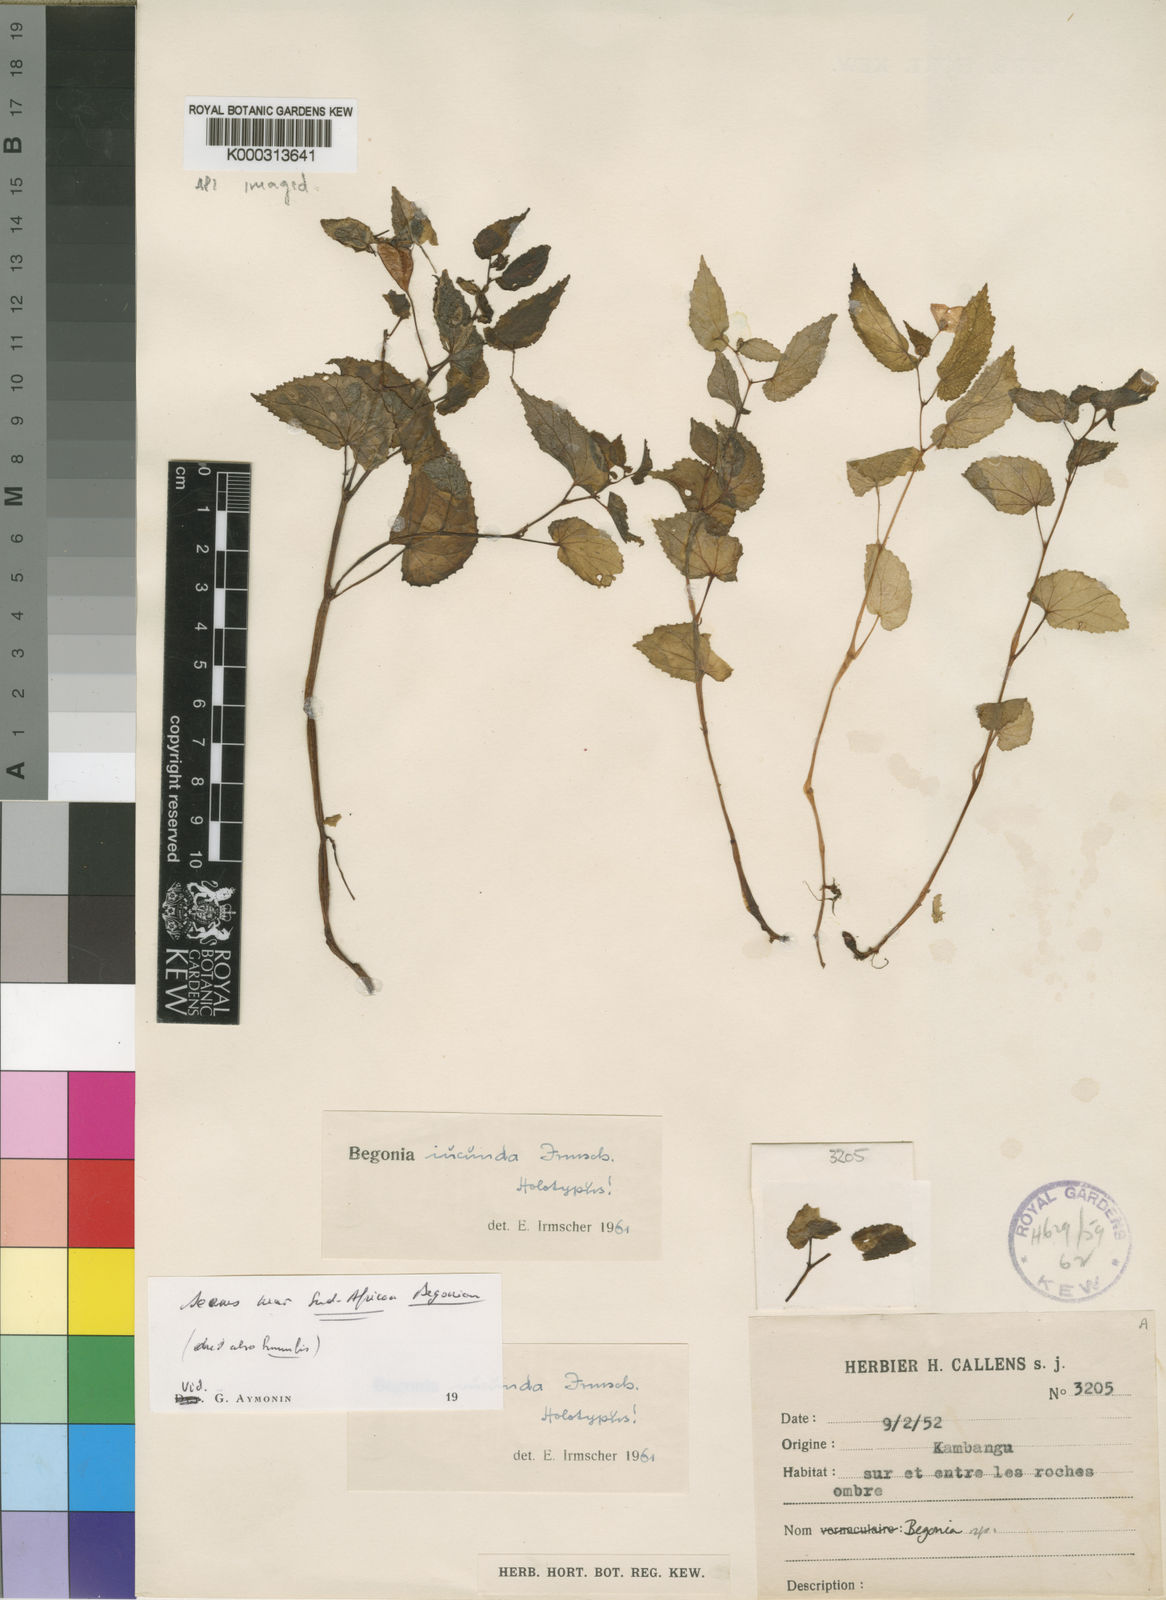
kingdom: Plantae
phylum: Tracheophyta
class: Magnoliopsida
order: Cucurbitales
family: Begoniaceae
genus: Begonia
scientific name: Begonia iucunda
